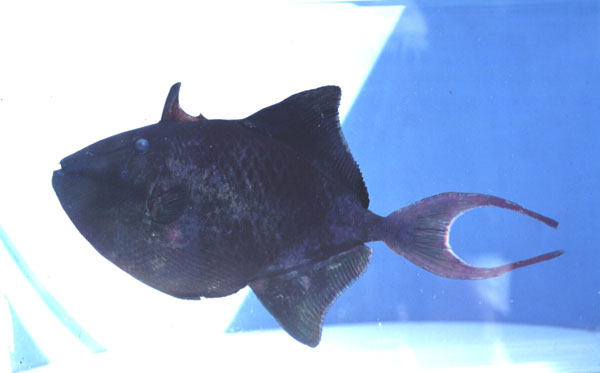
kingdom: Animalia
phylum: Chordata
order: Tetraodontiformes
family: Balistidae
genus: Odonus
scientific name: Odonus niger
